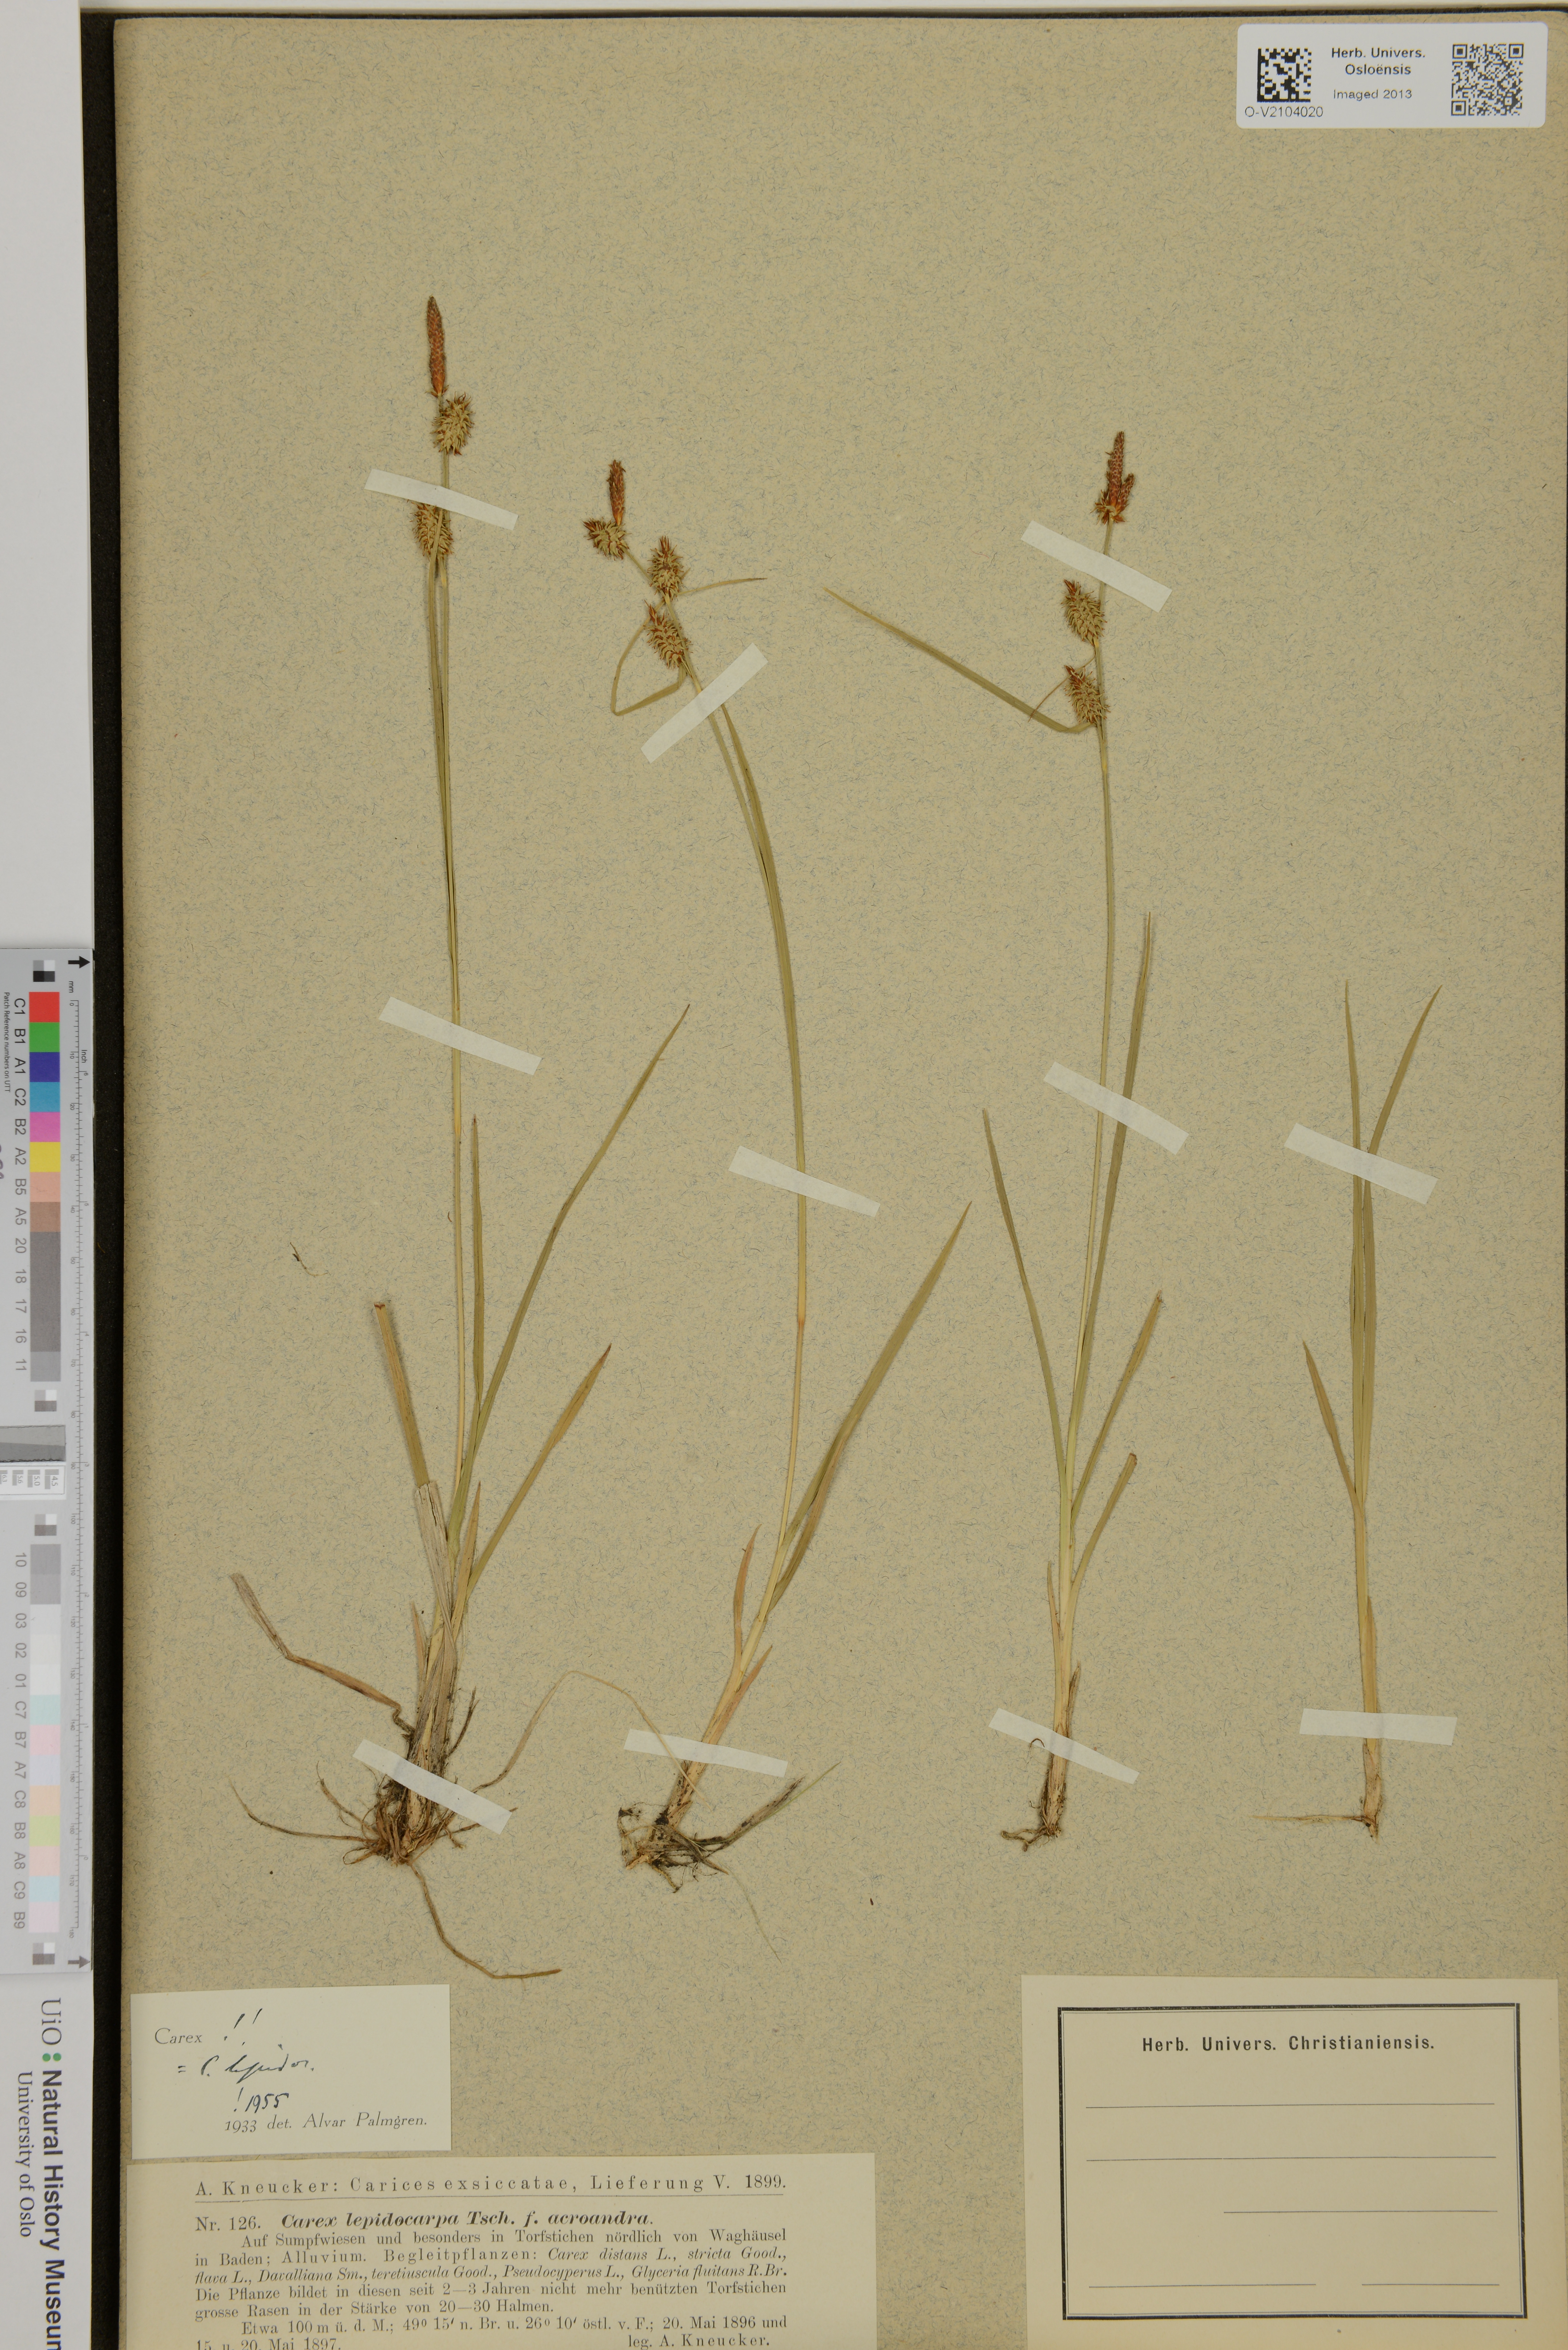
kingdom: Plantae
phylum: Tracheophyta
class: Liliopsida
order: Poales
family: Cyperaceae
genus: Carex
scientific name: Carex lepidocarpa
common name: Long-stalked yellow-sedge
